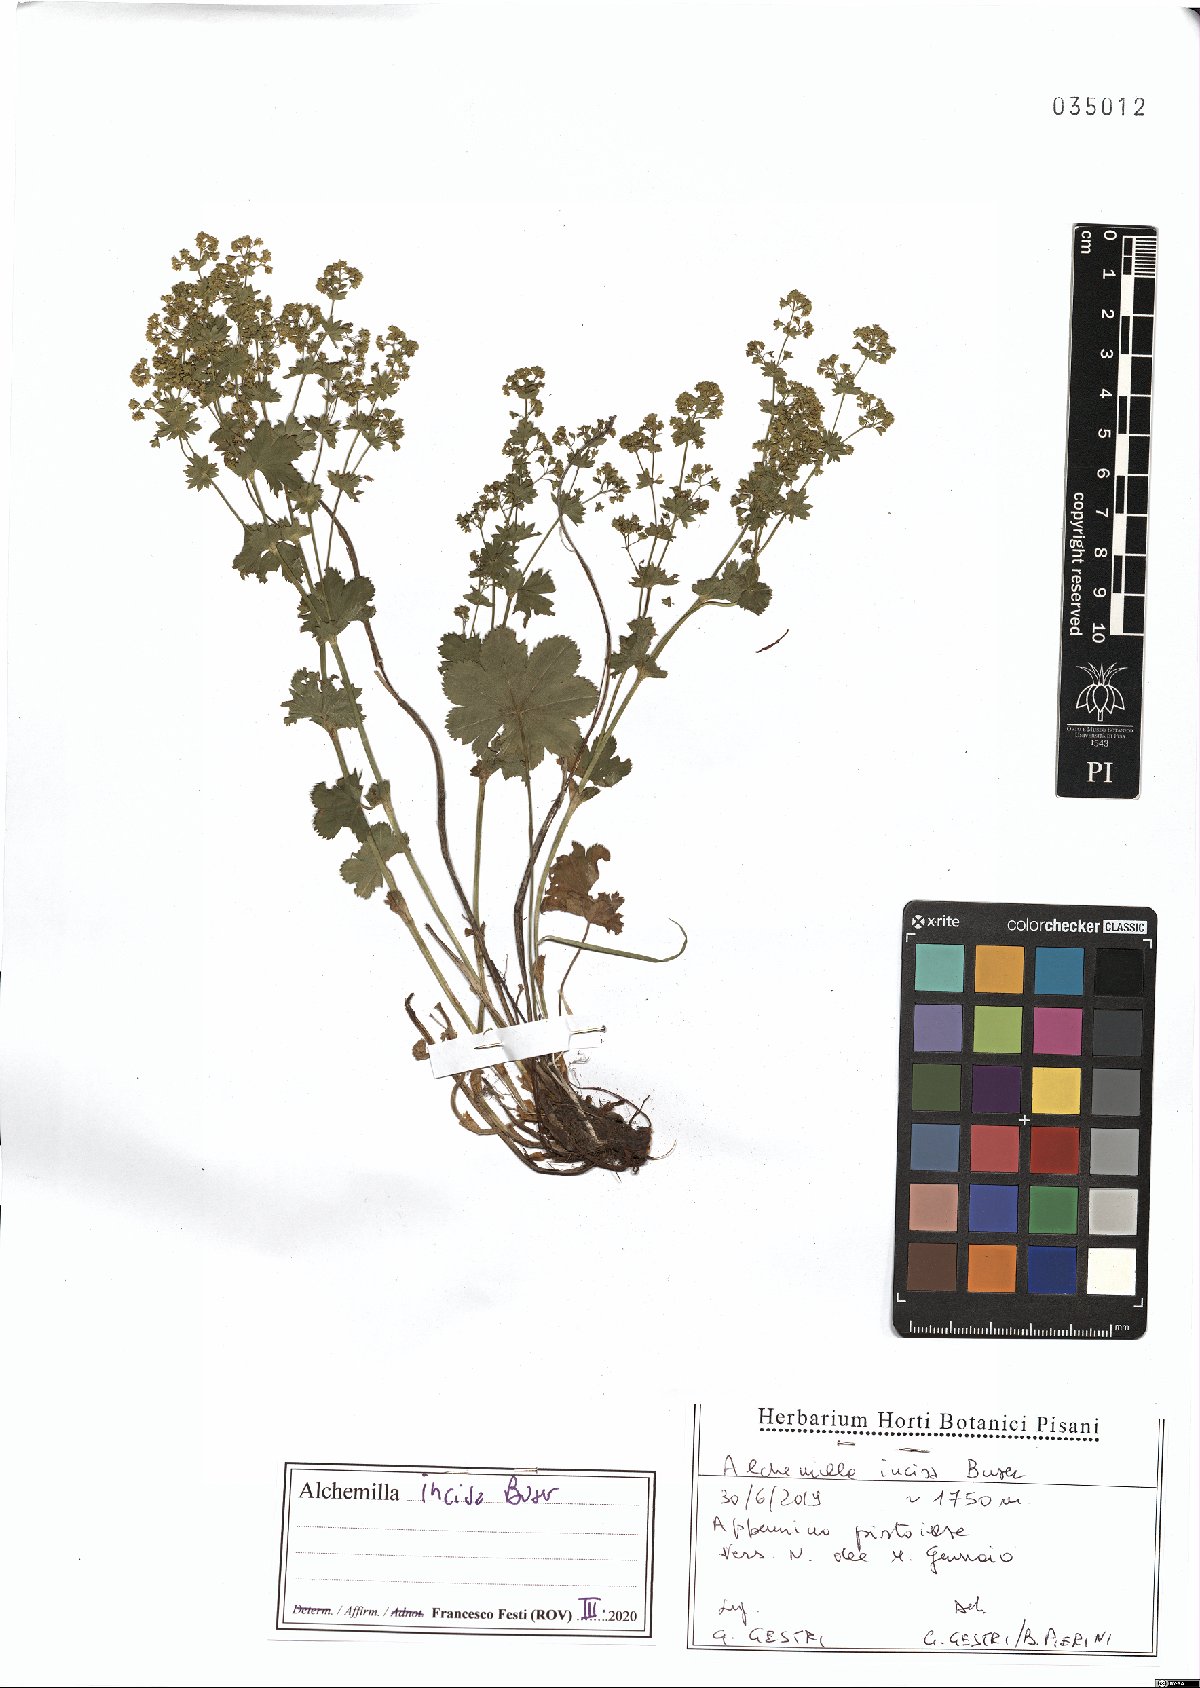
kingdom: Plantae
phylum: Tracheophyta
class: Magnoliopsida
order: Rosales
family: Rosaceae
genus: Alchemilla
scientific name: Alchemilla incisa
